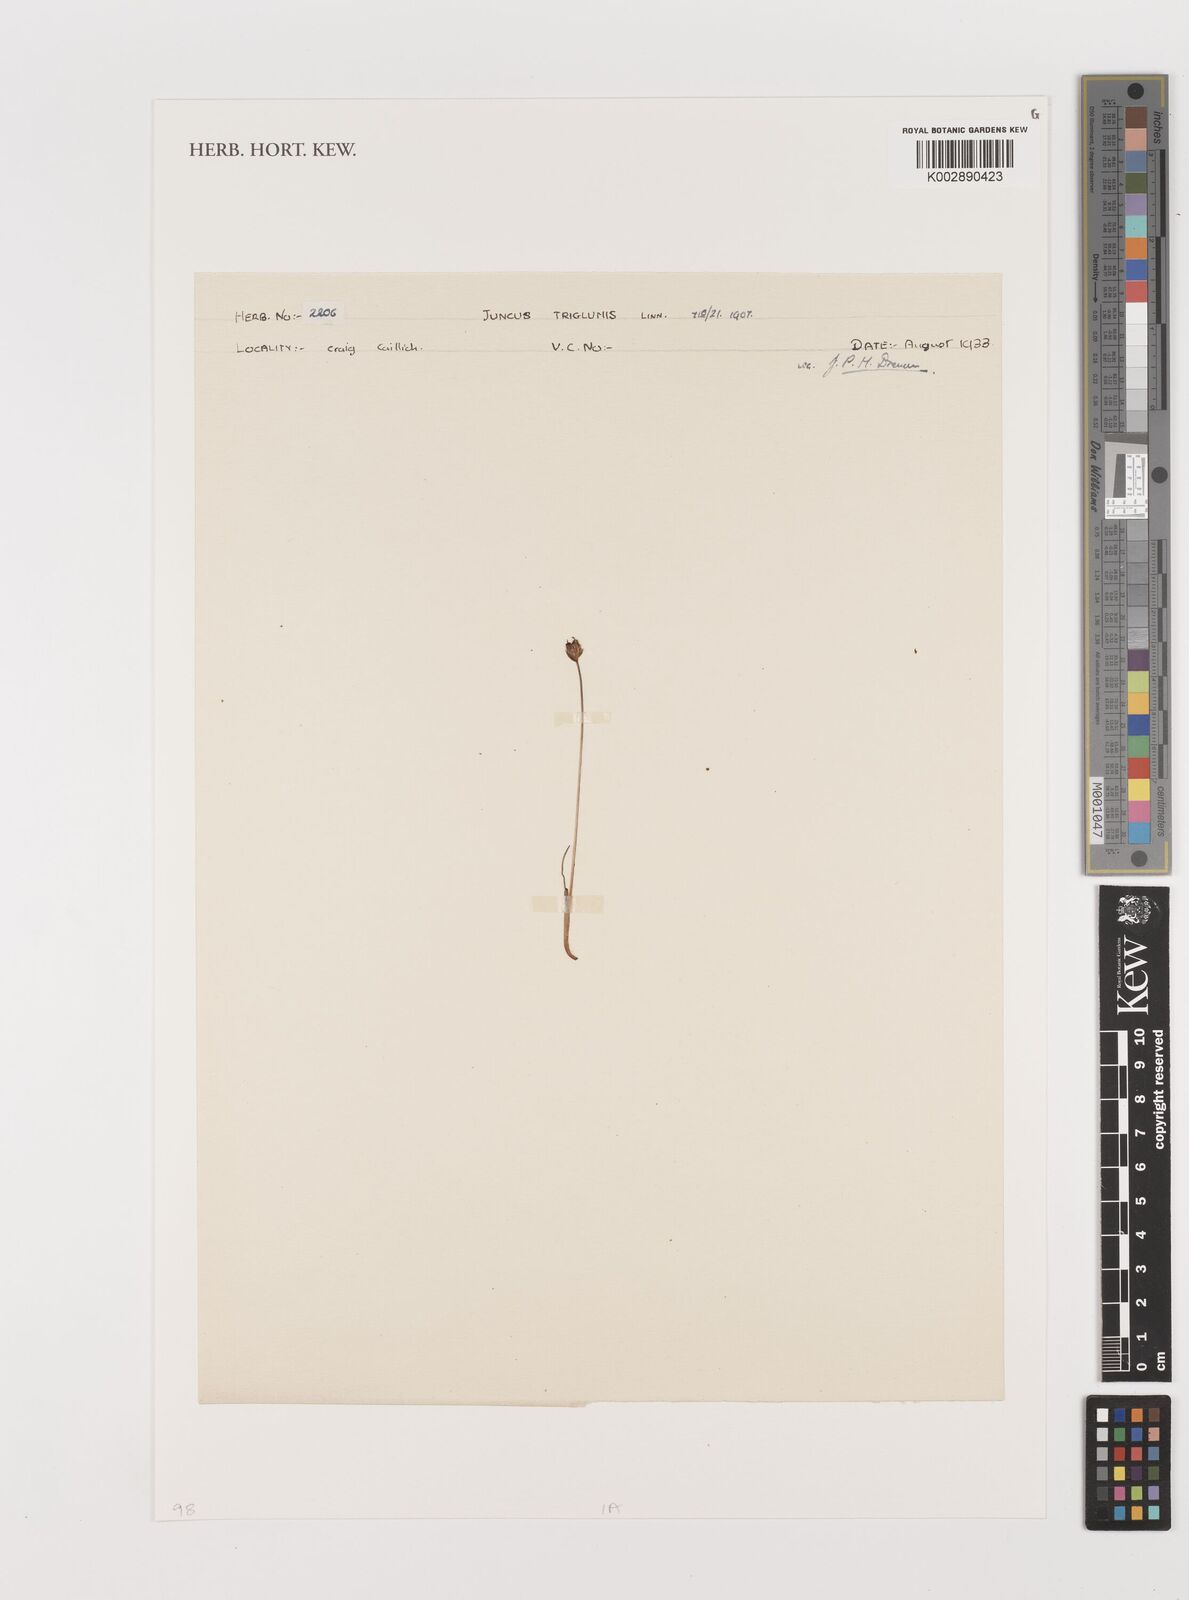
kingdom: Plantae
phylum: Tracheophyta
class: Liliopsida
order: Poales
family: Juncaceae
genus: Juncus
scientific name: Juncus triglumis
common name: Three-flowered rush
